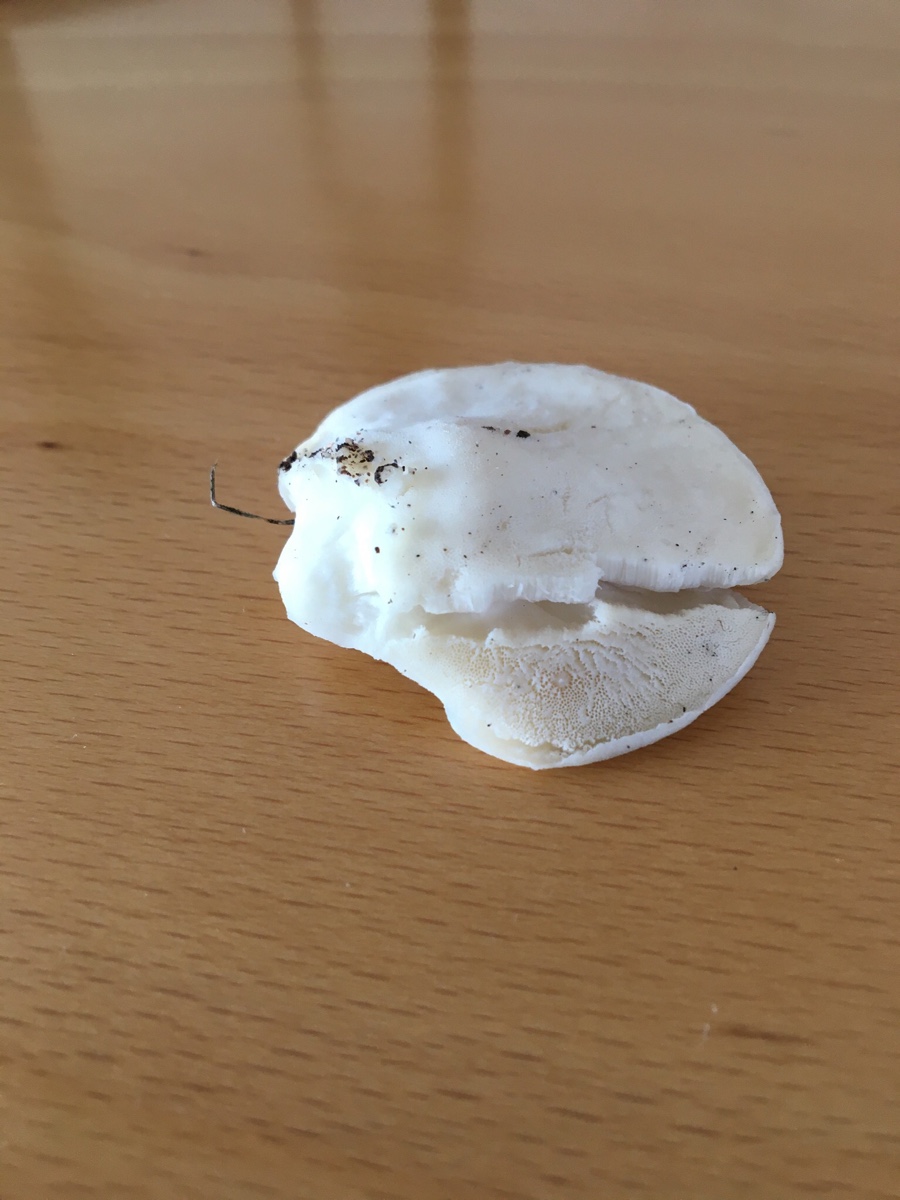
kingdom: Fungi
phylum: Basidiomycota
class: Agaricomycetes
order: Polyporales
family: Incrustoporiaceae
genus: Tyromyces
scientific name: Tyromyces chioneus
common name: stor blødporesvamp
